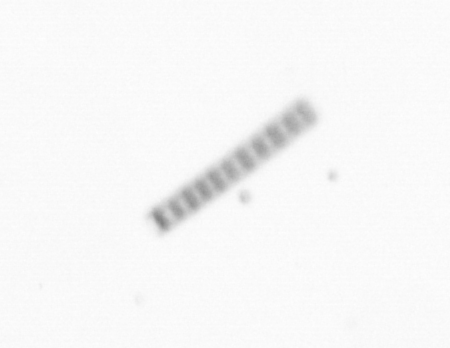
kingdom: Chromista
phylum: Ochrophyta
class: Bacillariophyceae
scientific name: Bacillariophyceae
